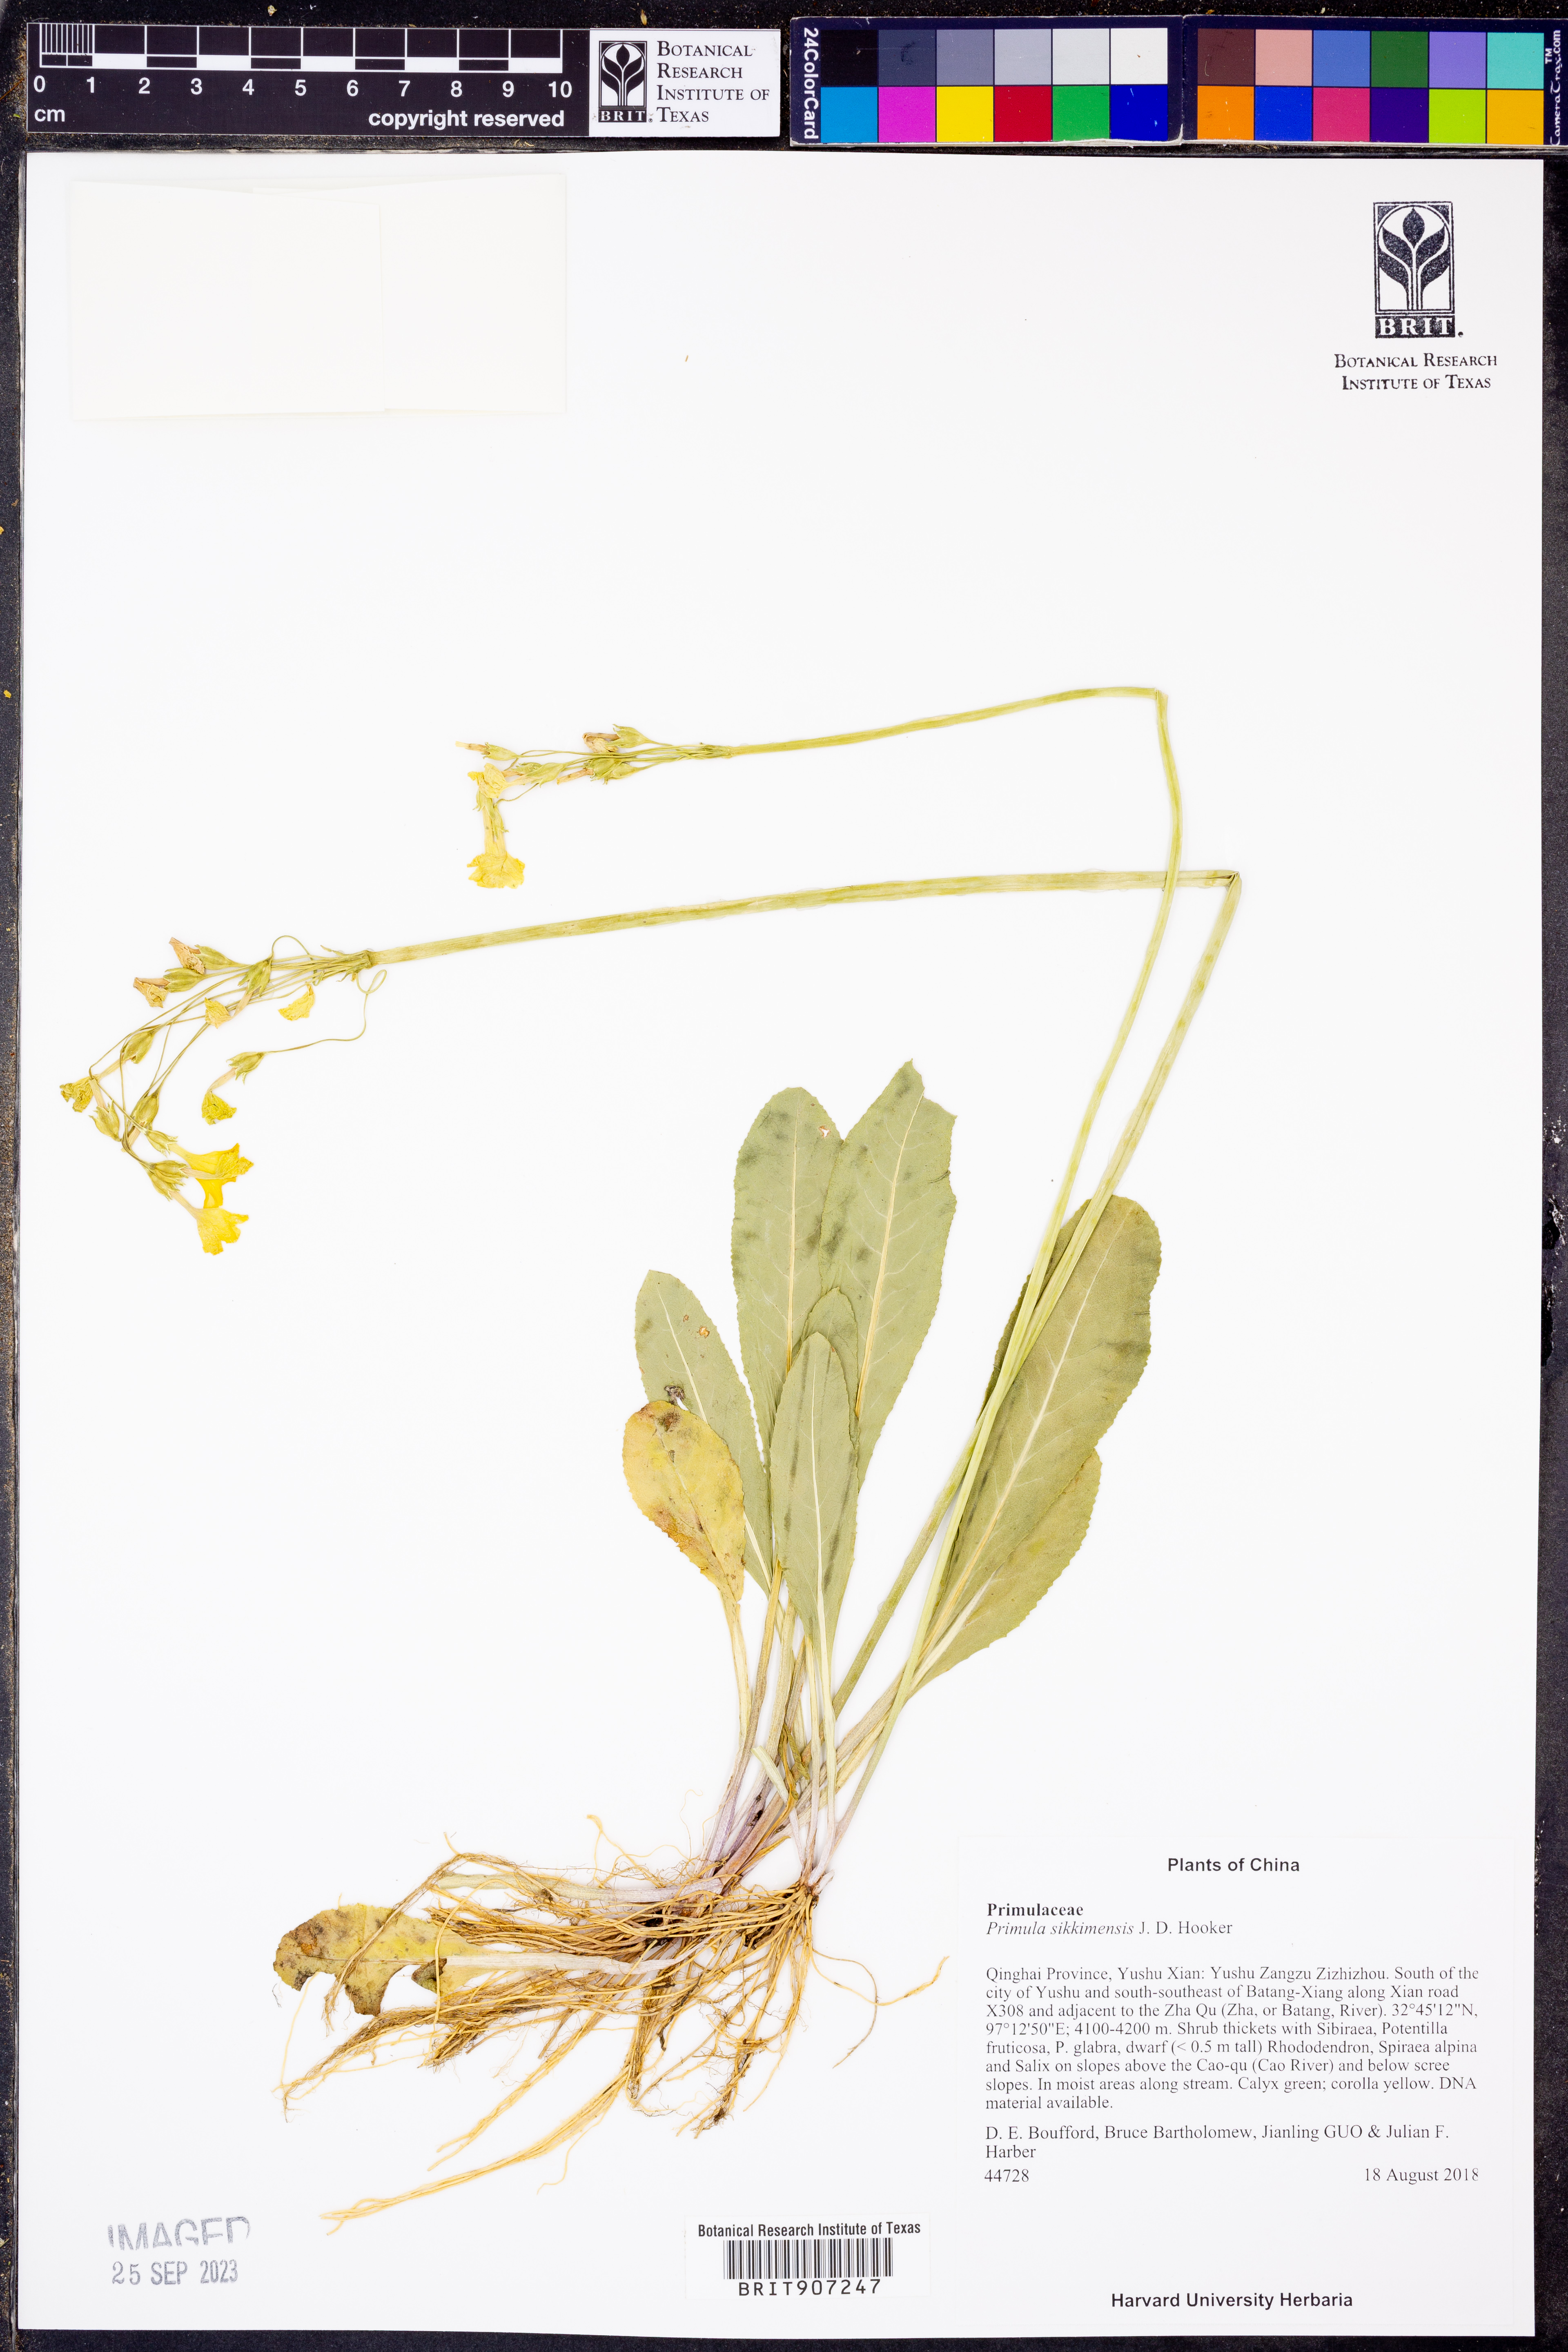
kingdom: Plantae
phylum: Tracheophyta
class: Magnoliopsida
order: Ericales
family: Primulaceae
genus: Primula
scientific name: Primula sikkimensis
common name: Sikkim cowslip
